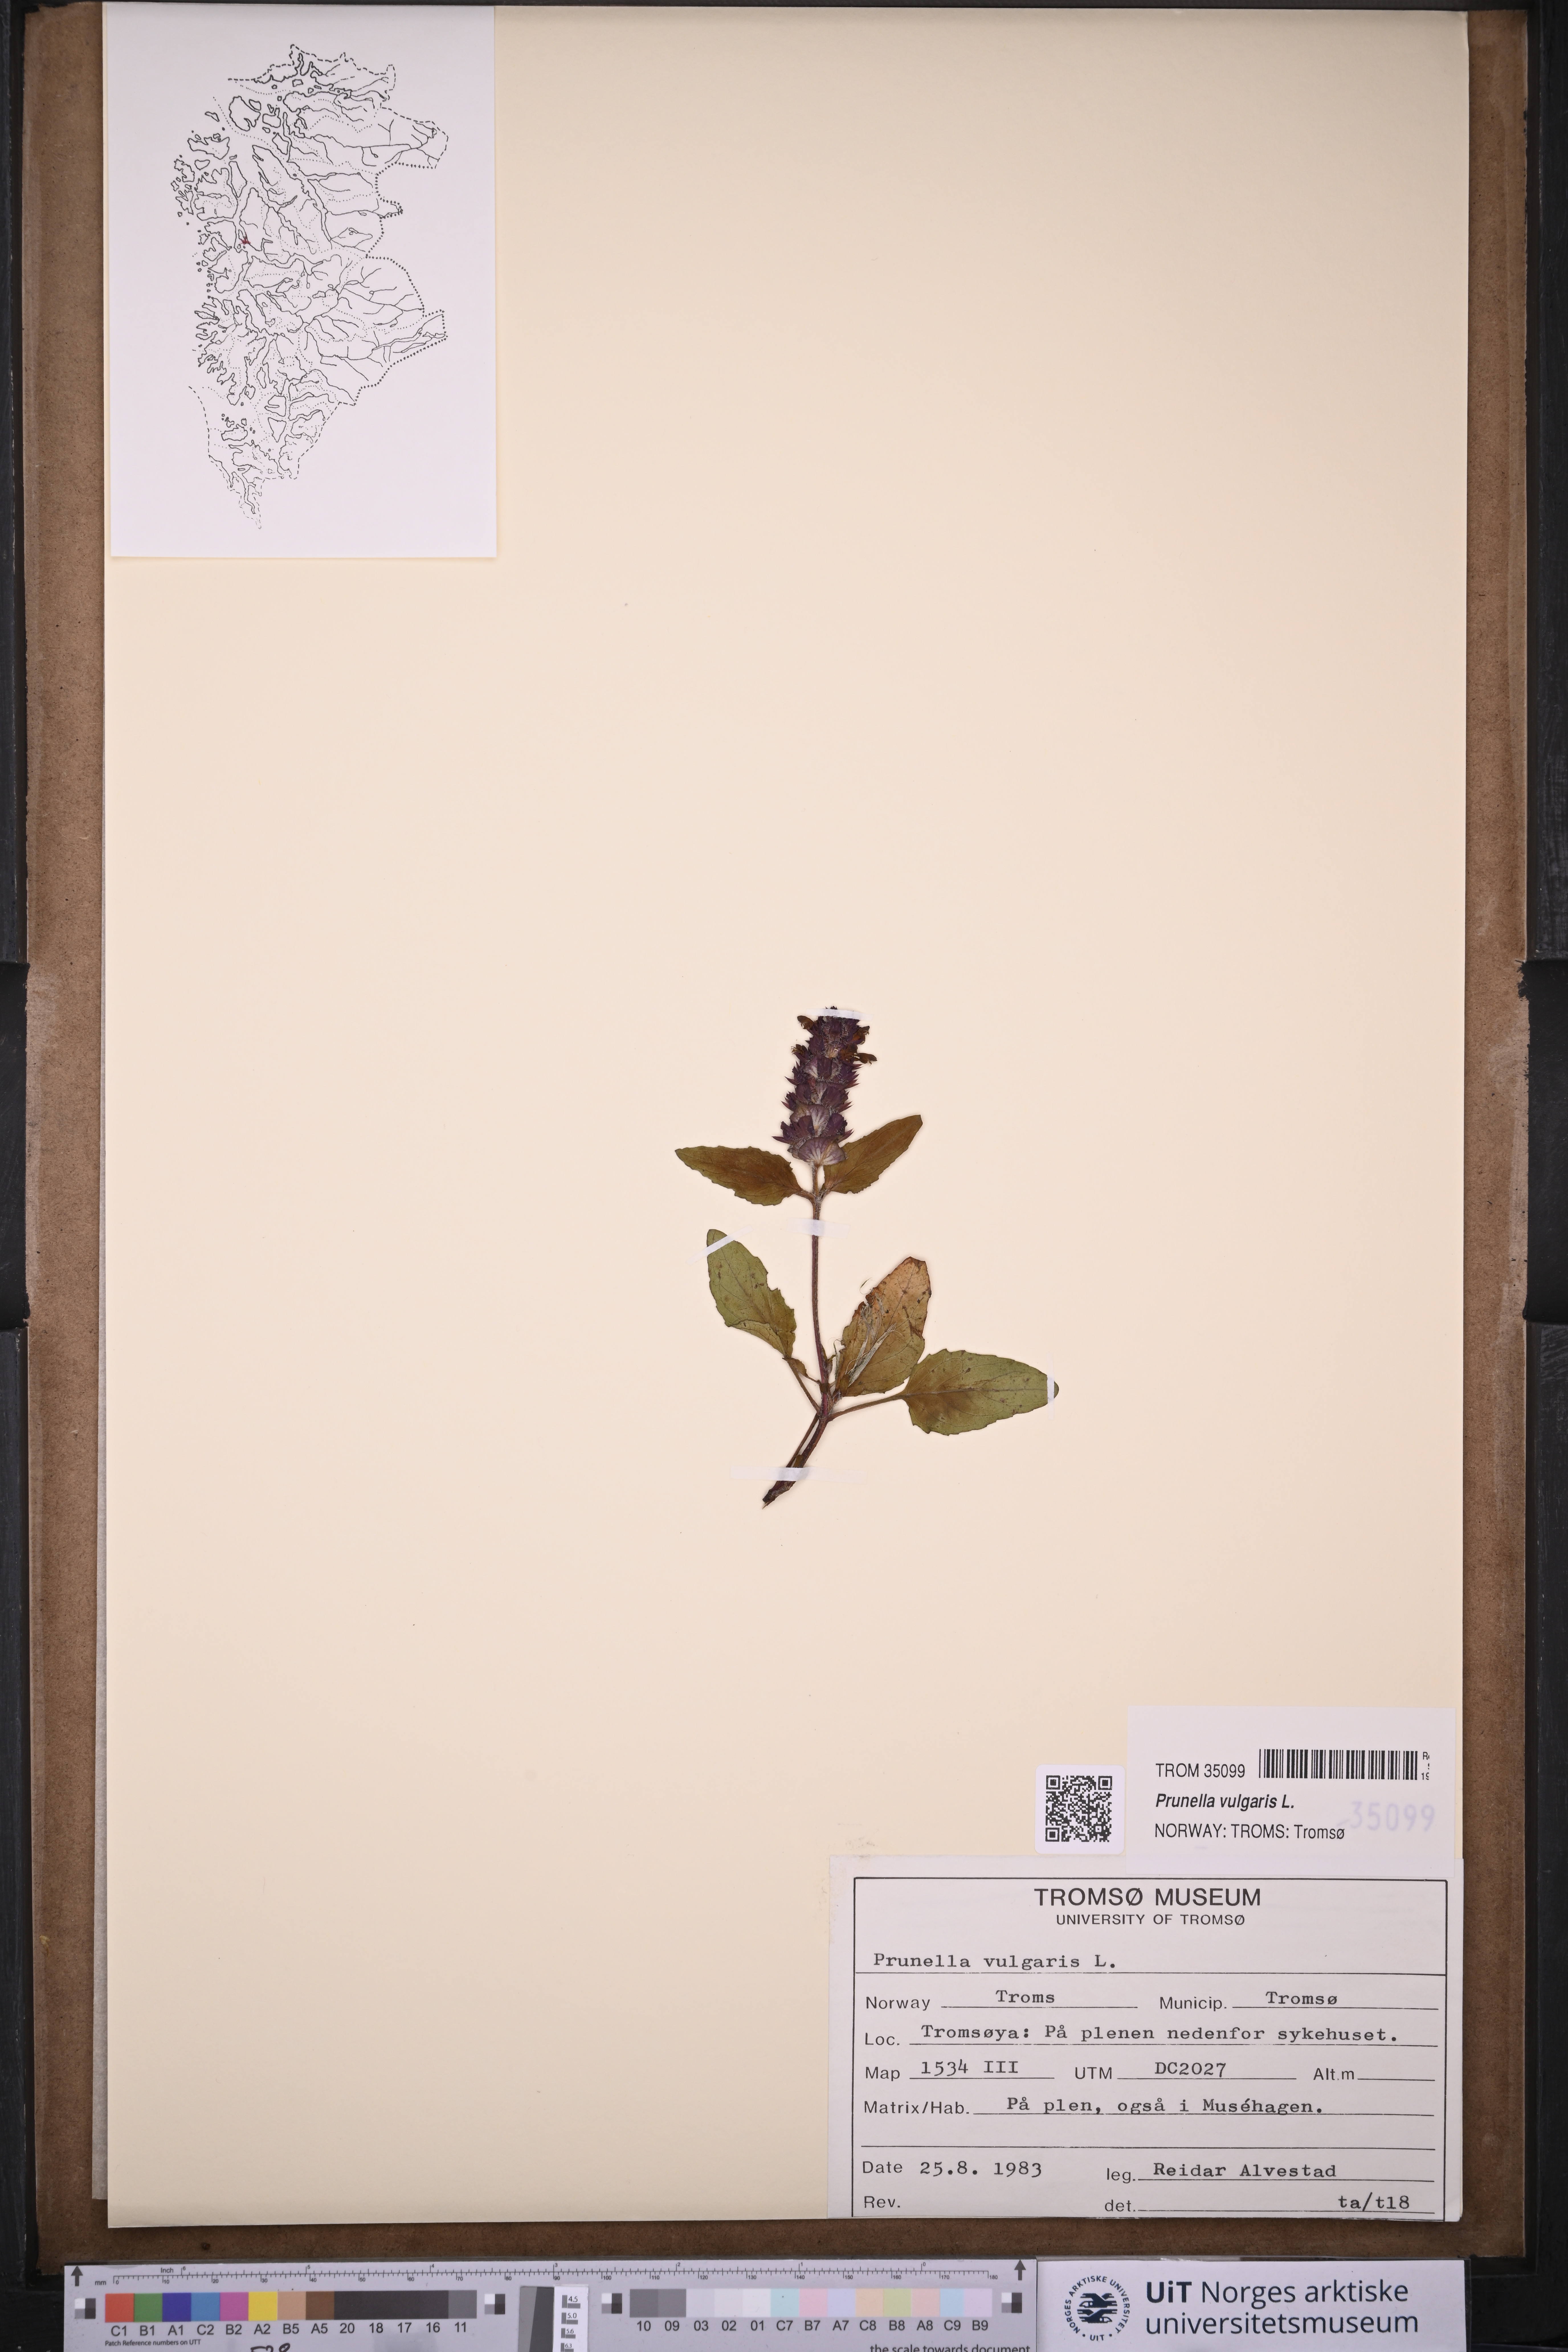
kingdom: Plantae
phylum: Tracheophyta
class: Magnoliopsida
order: Lamiales
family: Lamiaceae
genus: Prunella
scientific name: Prunella vulgaris
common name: Heal-all
